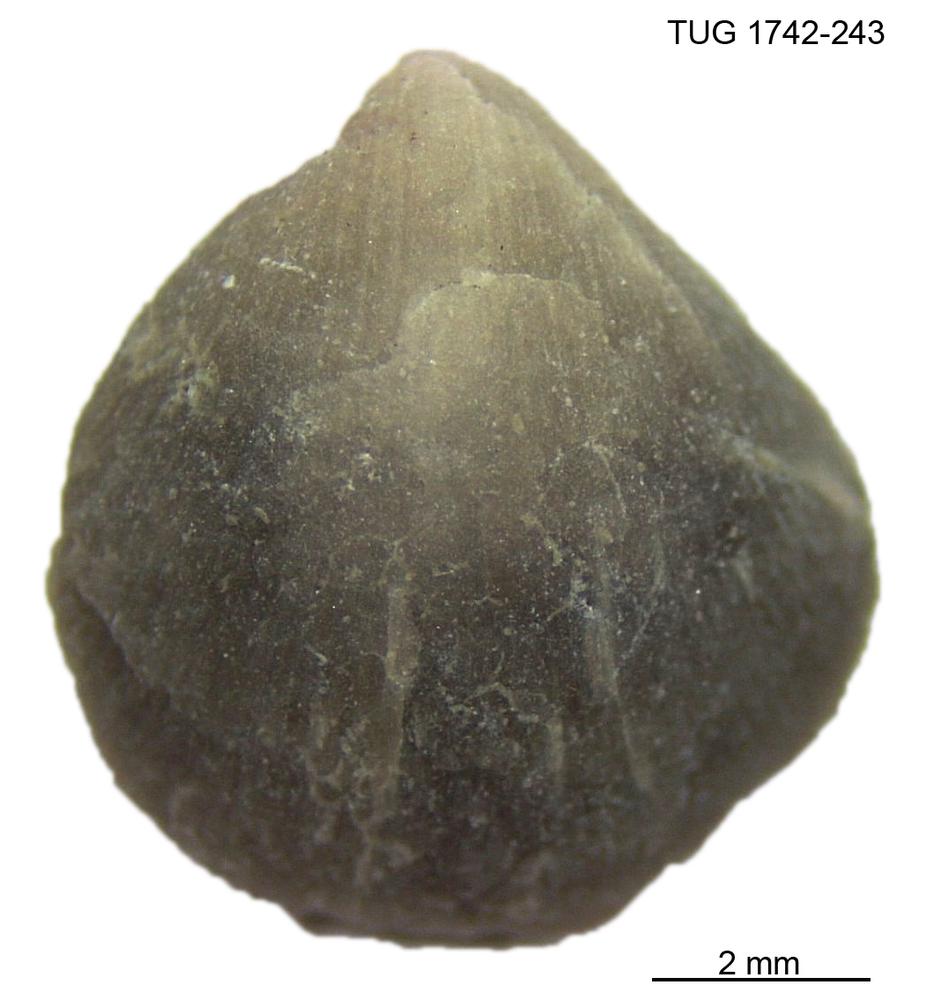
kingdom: Animalia
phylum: Brachiopoda
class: Rhynchonellata
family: Anazygidae
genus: Pentlandella
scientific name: Pentlandella
